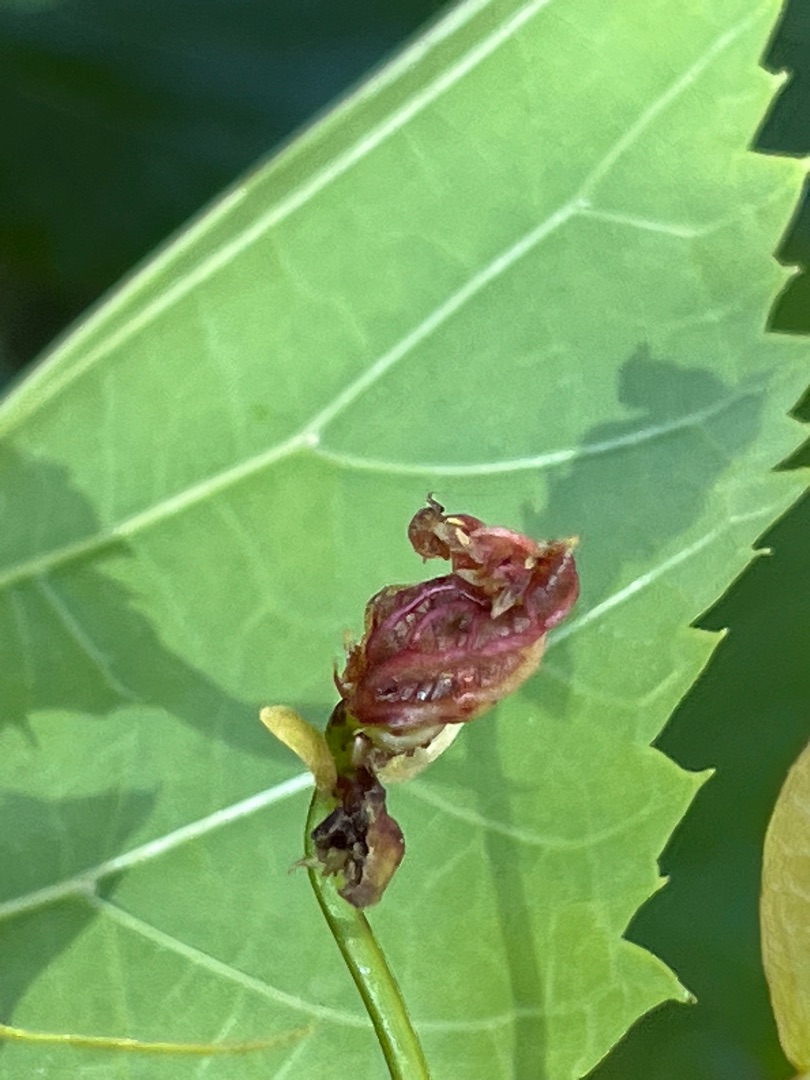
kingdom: Animalia
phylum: Arthropoda
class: Insecta
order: Diptera
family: Cecidomyiidae
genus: Dasineura
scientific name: Dasineura thomasiana
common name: Lindekrusegalmyg
